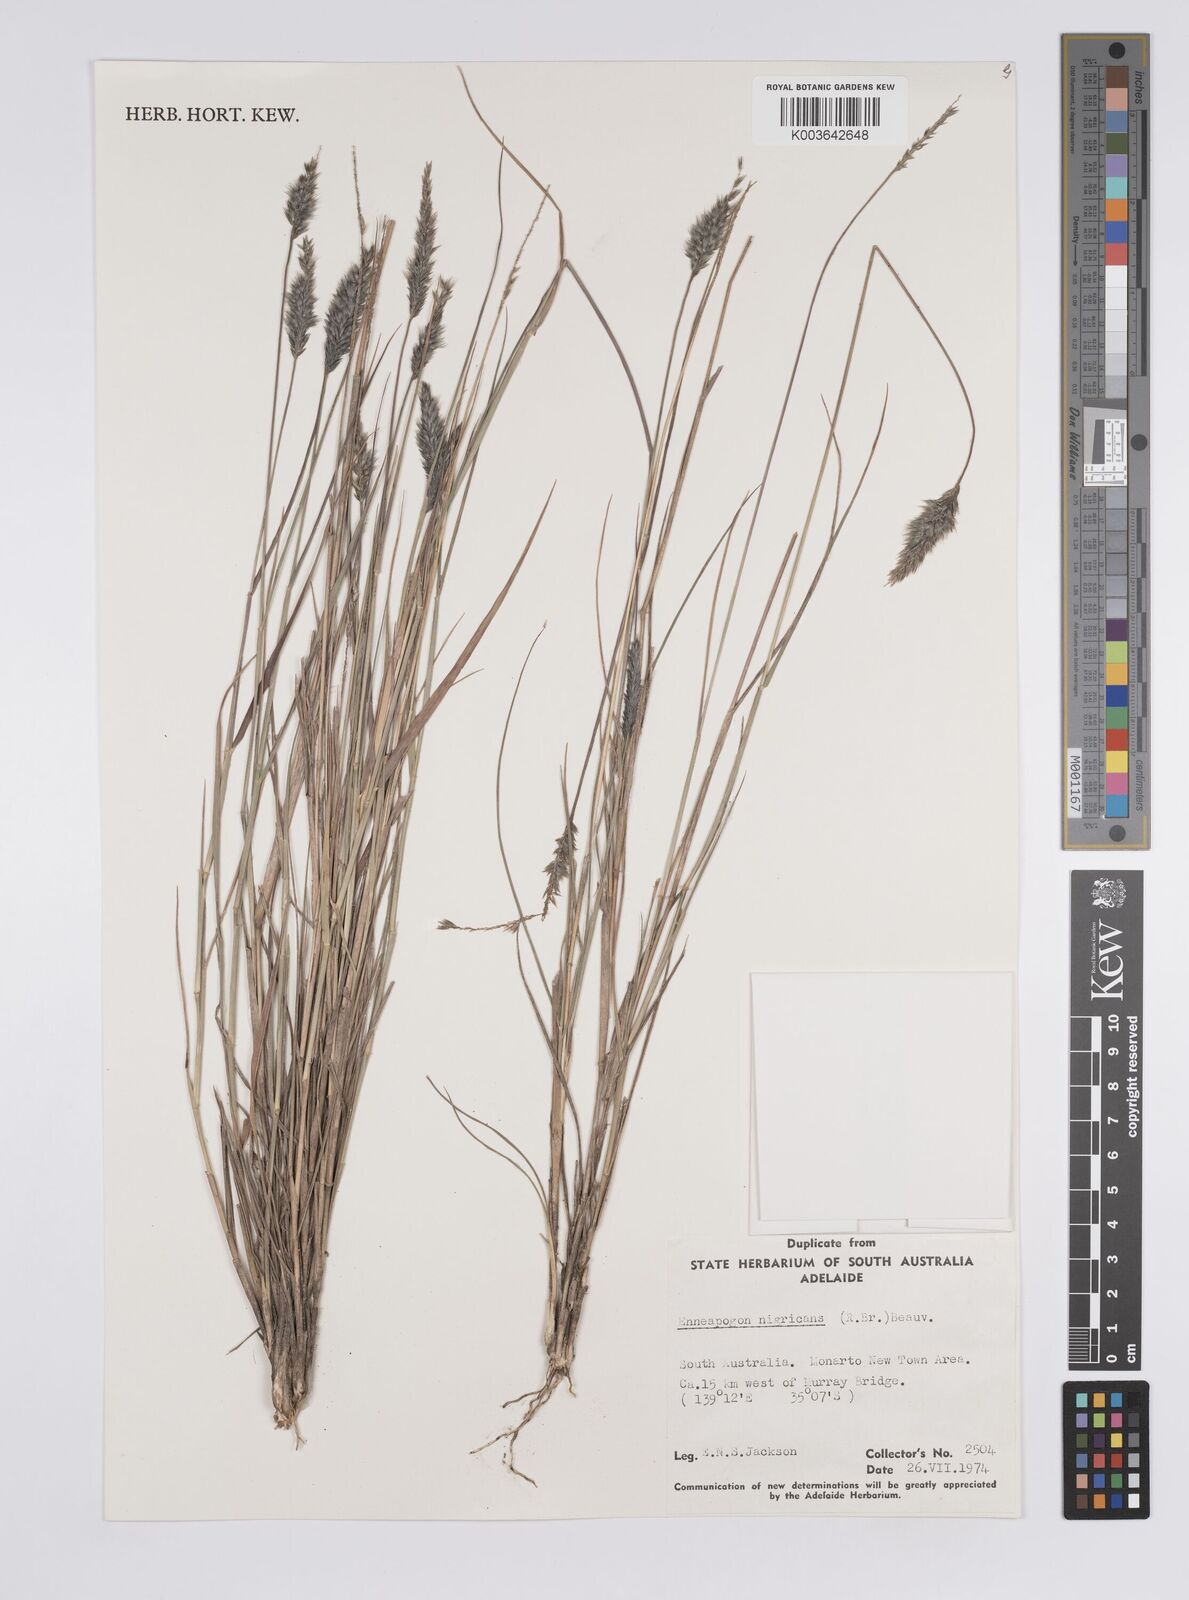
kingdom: Plantae
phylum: Tracheophyta
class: Liliopsida
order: Poales
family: Poaceae
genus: Enneapogon
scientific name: Enneapogon nigricans
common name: Pappus grass
